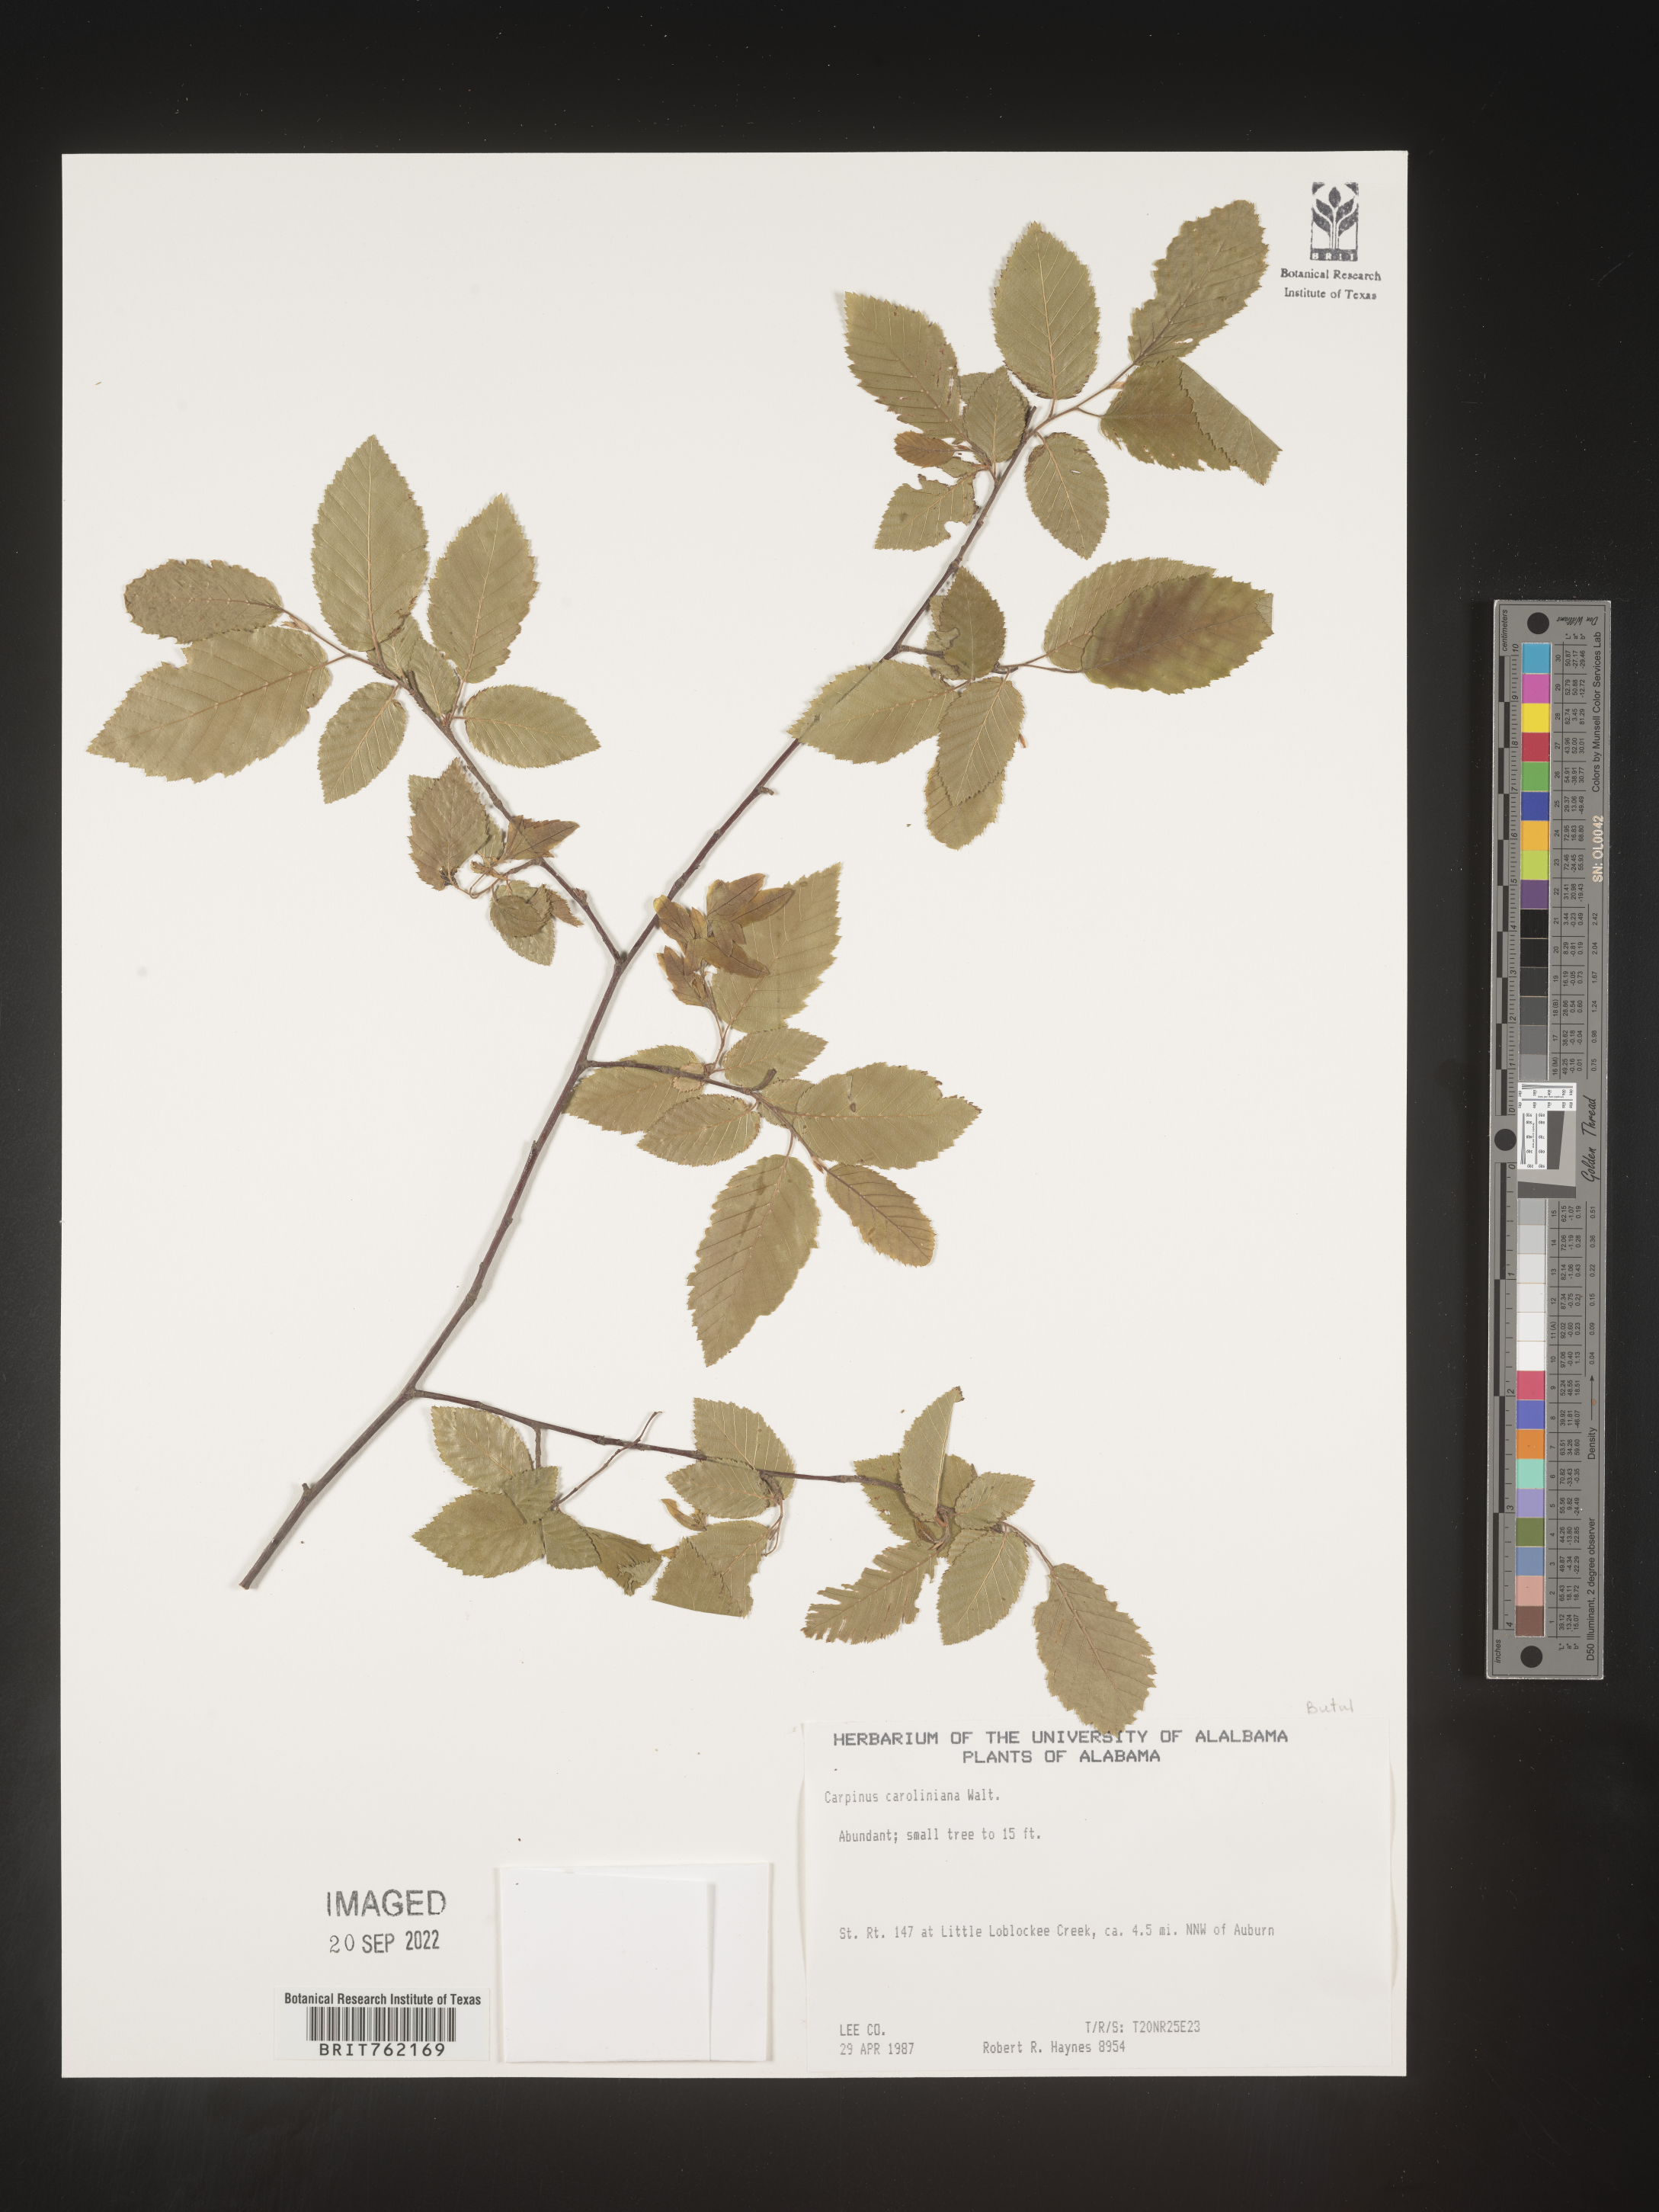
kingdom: Plantae
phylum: Tracheophyta
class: Magnoliopsida
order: Fagales
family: Betulaceae
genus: Carpinus
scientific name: Carpinus caroliniana
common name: American hornbeam
